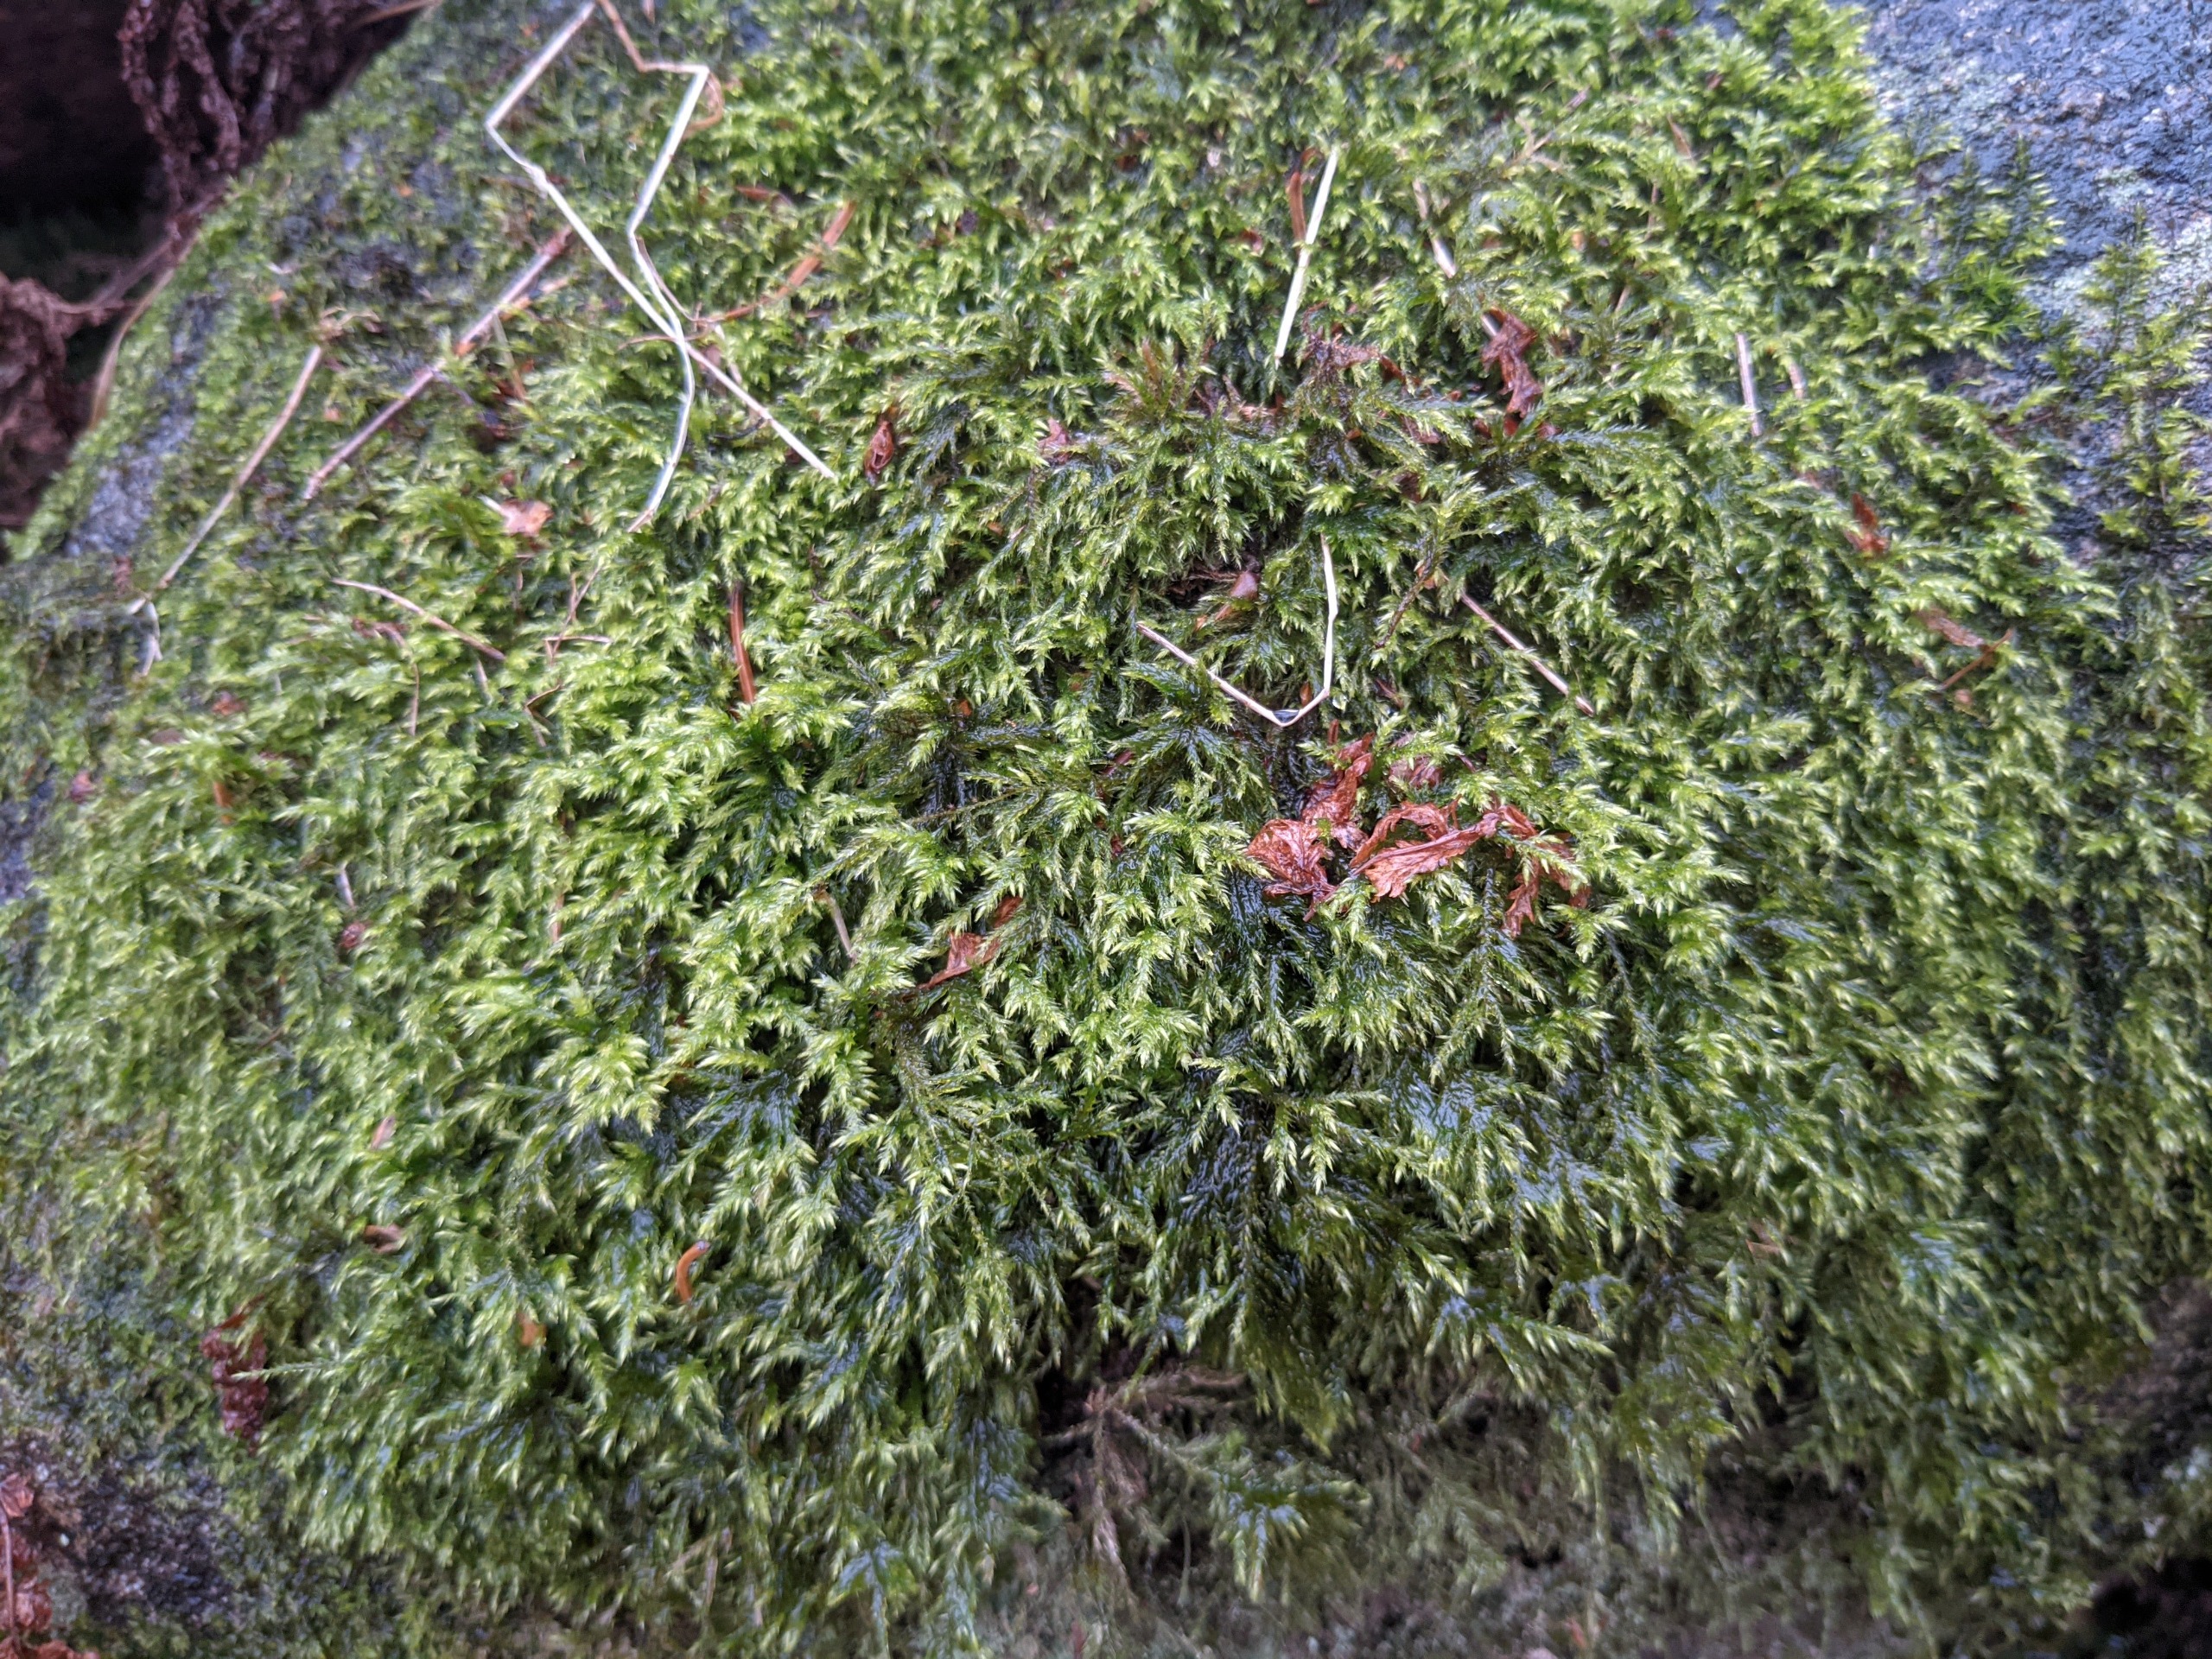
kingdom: Plantae
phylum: Bryophyta
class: Bryopsida
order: Hypnales
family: Lembophyllaceae
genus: Pseudisothecium
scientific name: Pseudisothecium myosuroides
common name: Slank stammemos
